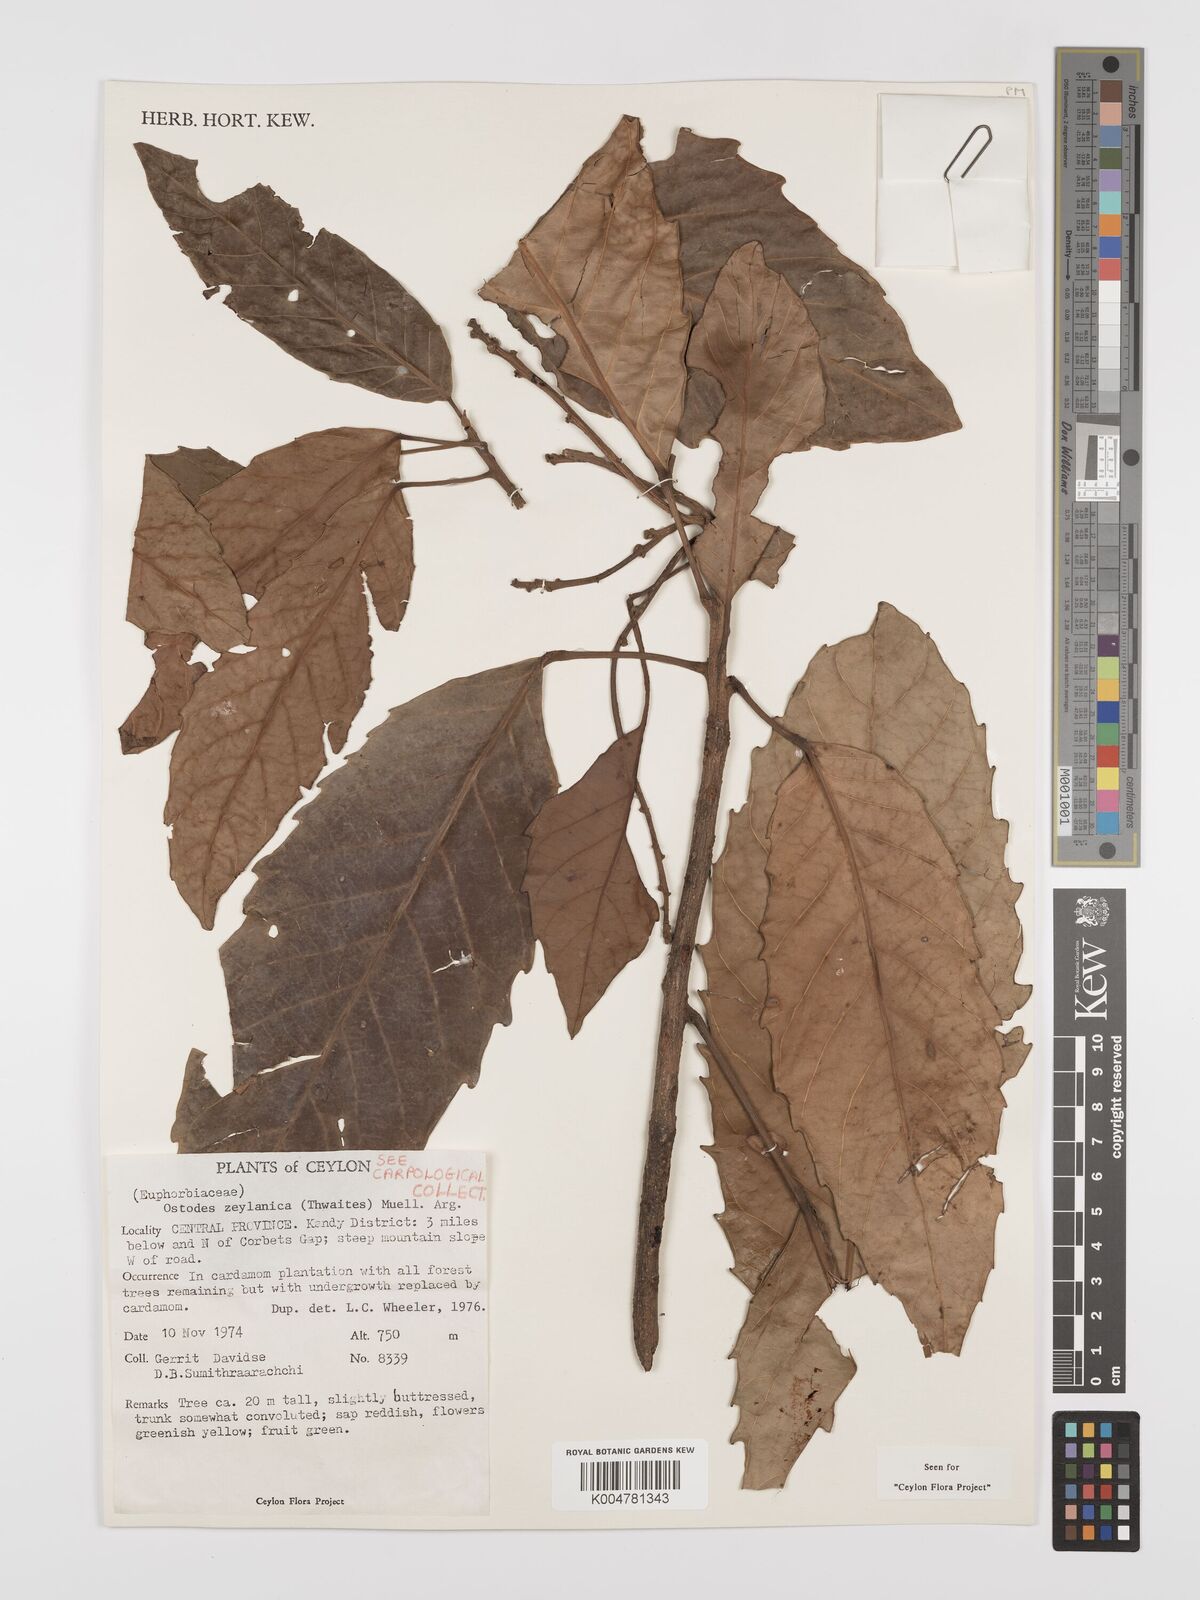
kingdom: Plantae
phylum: Tracheophyta
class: Magnoliopsida
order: Malpighiales
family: Euphorbiaceae
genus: Paracroton
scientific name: Paracroton zeylanicus
